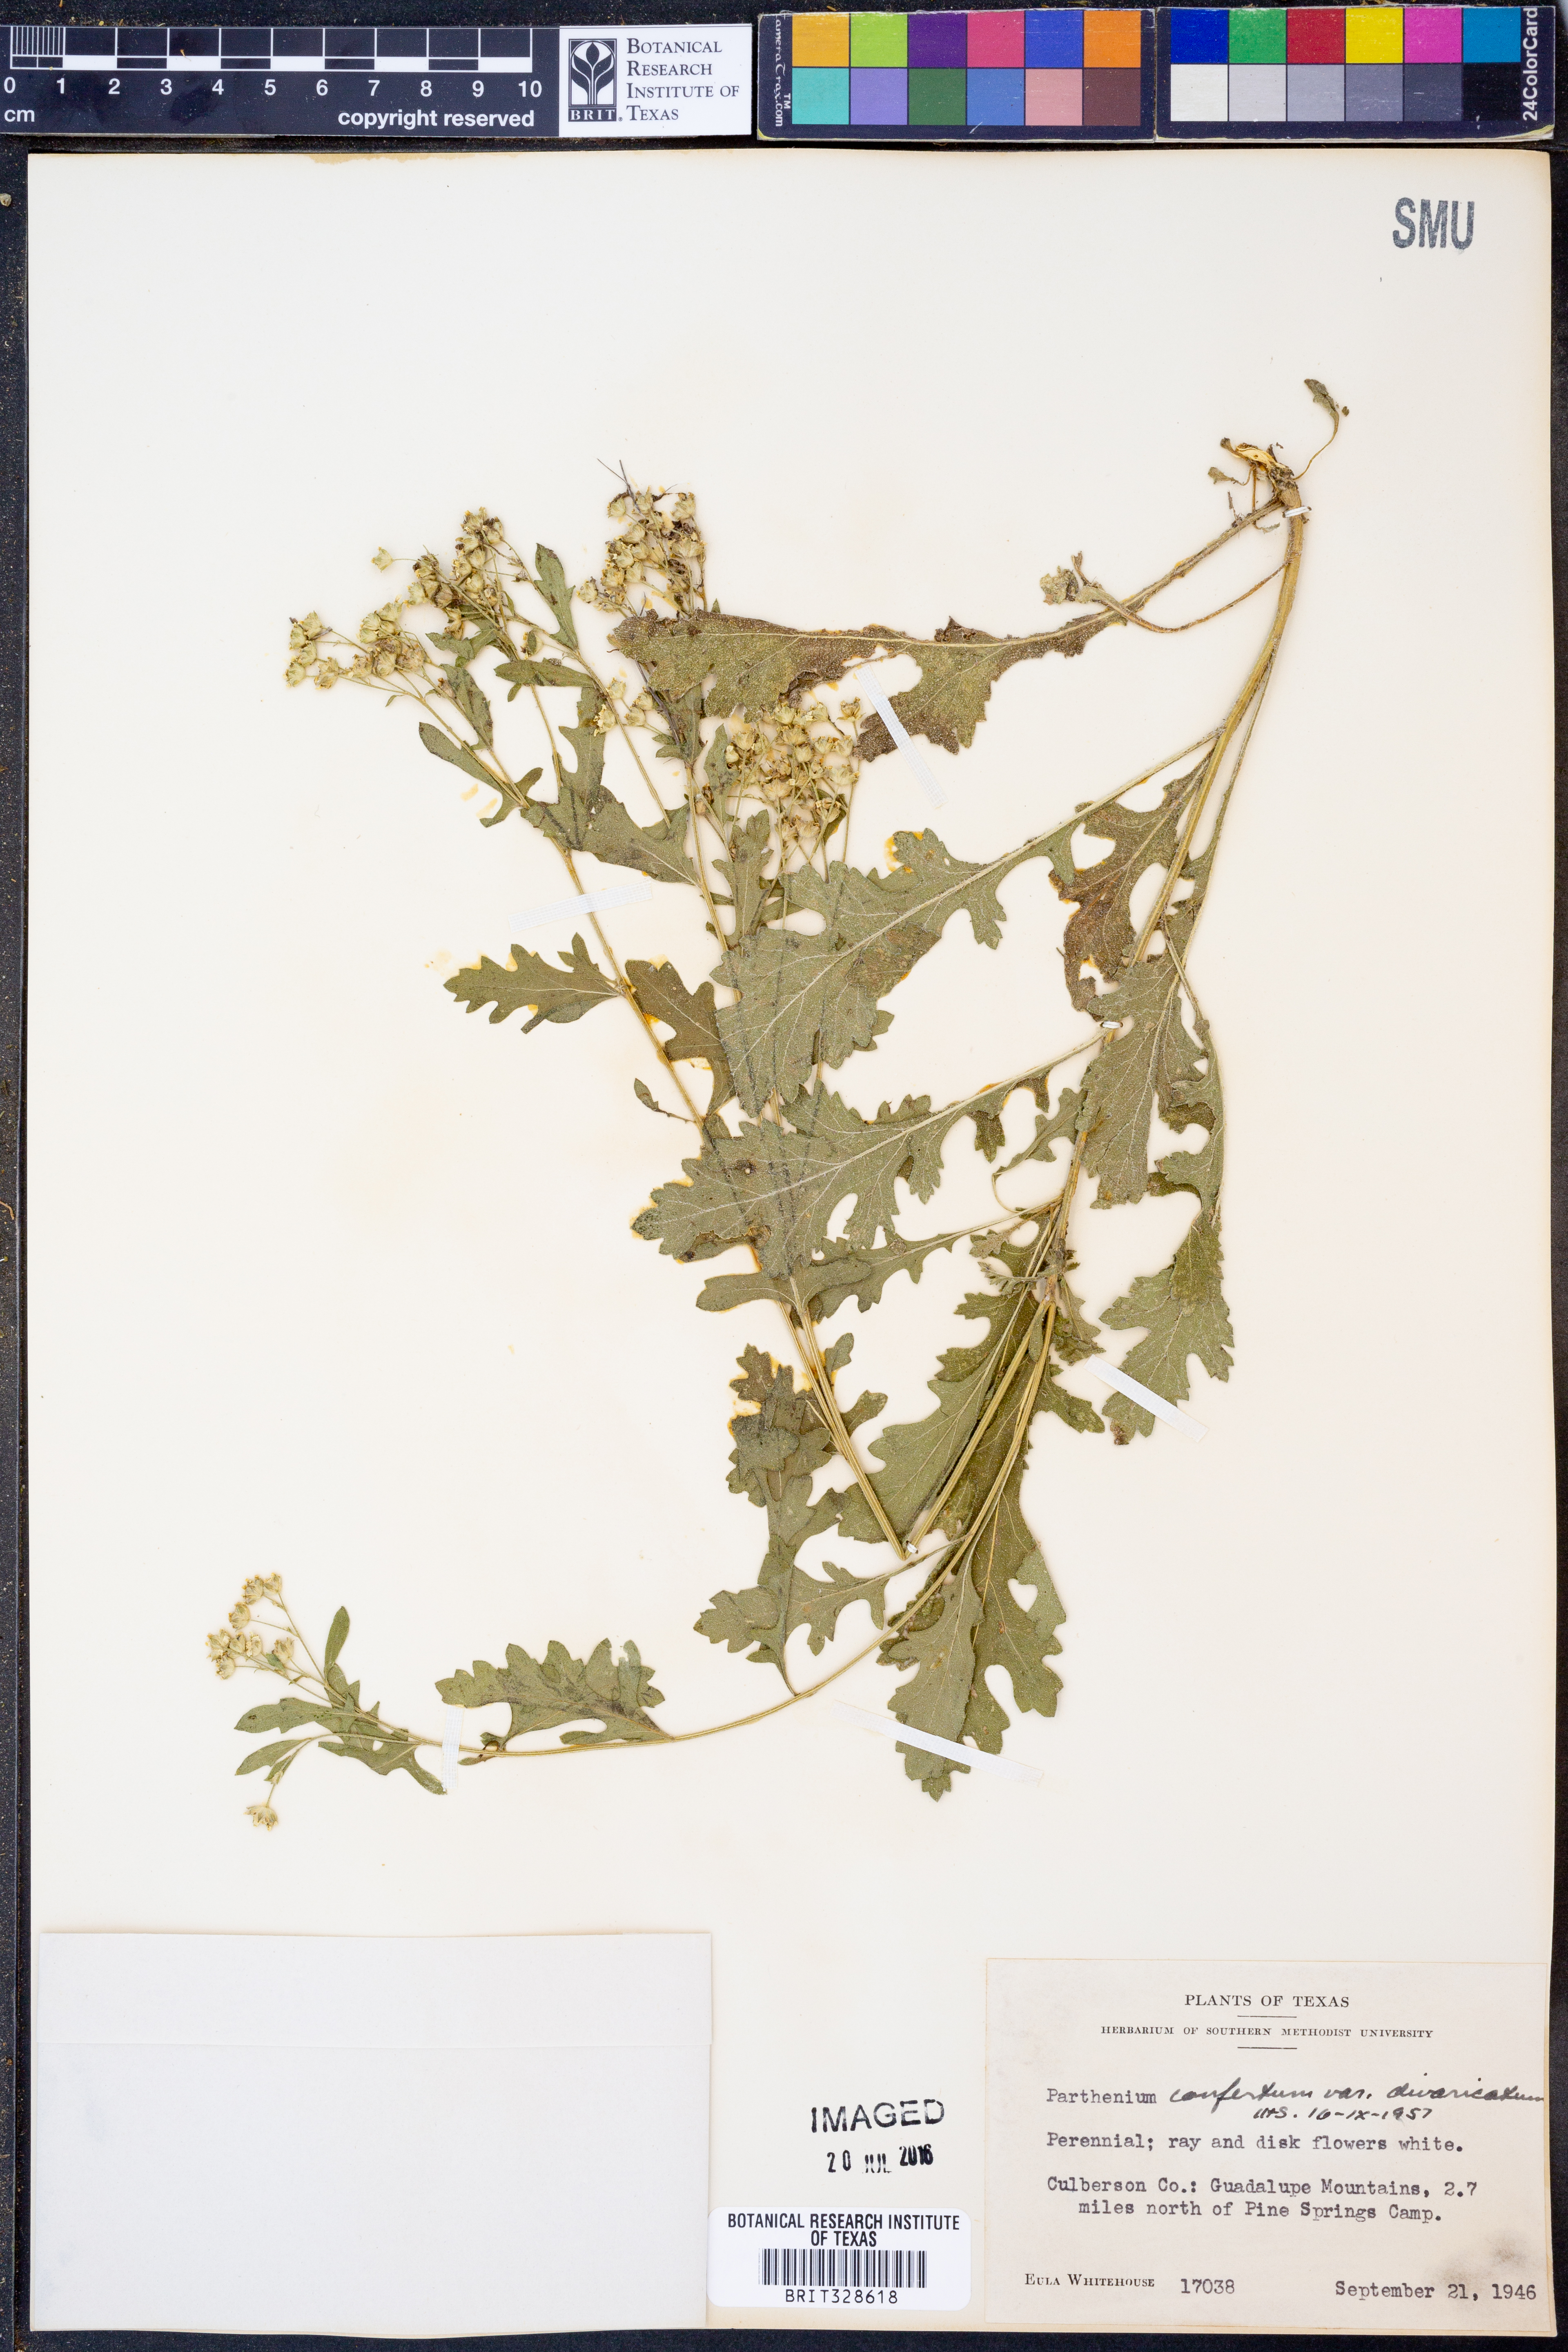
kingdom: Plantae
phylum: Tracheophyta
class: Magnoliopsida
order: Asterales
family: Asteraceae
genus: Parthenium
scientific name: Parthenium confertum
